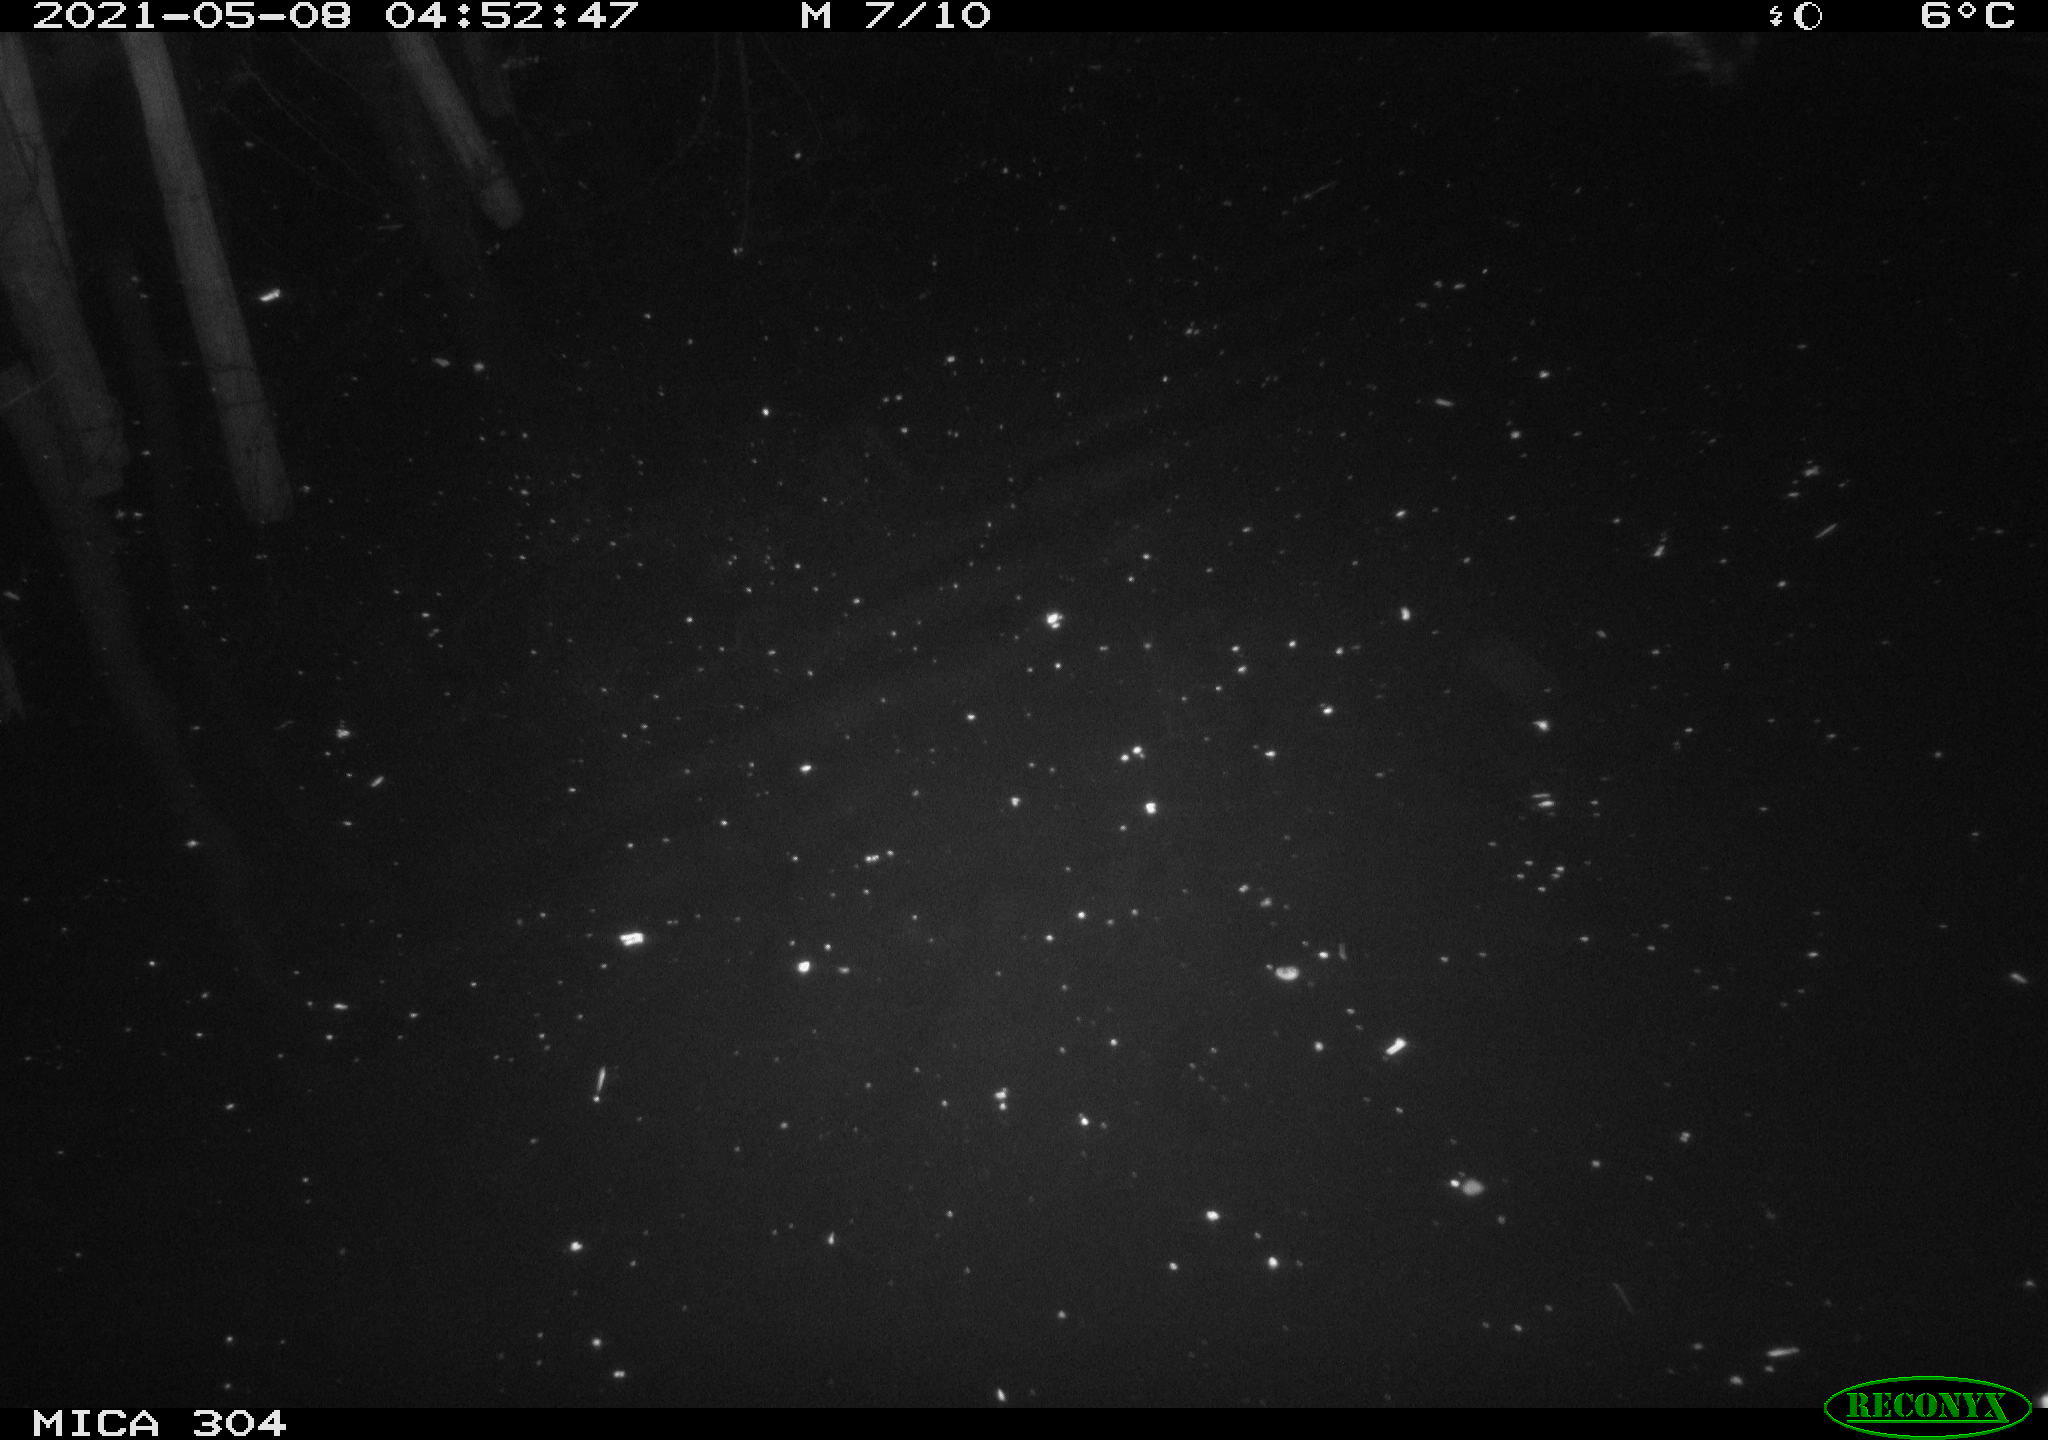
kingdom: Animalia
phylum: Chordata
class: Aves
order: Anseriformes
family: Anatidae
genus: Anas
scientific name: Anas platyrhynchos
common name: Mallard
